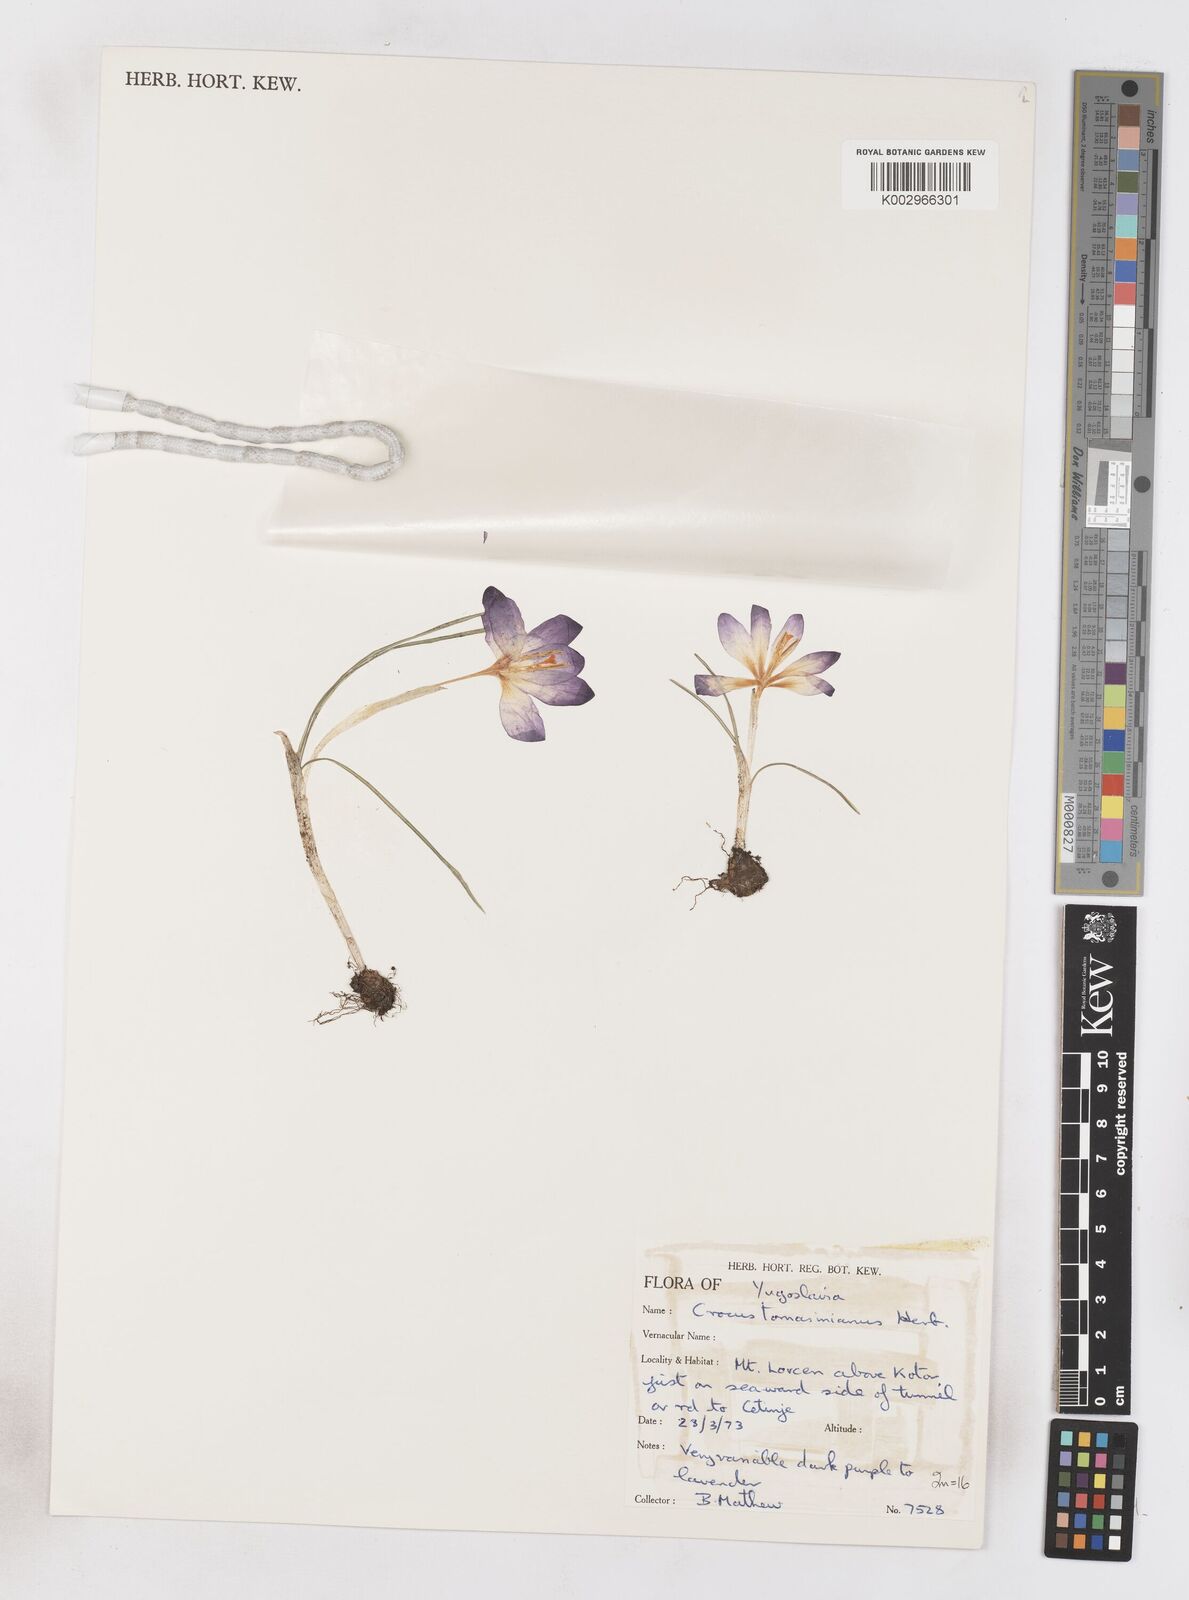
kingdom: Plantae
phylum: Tracheophyta
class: Liliopsida
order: Asparagales
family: Iridaceae
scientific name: Iridaceae
